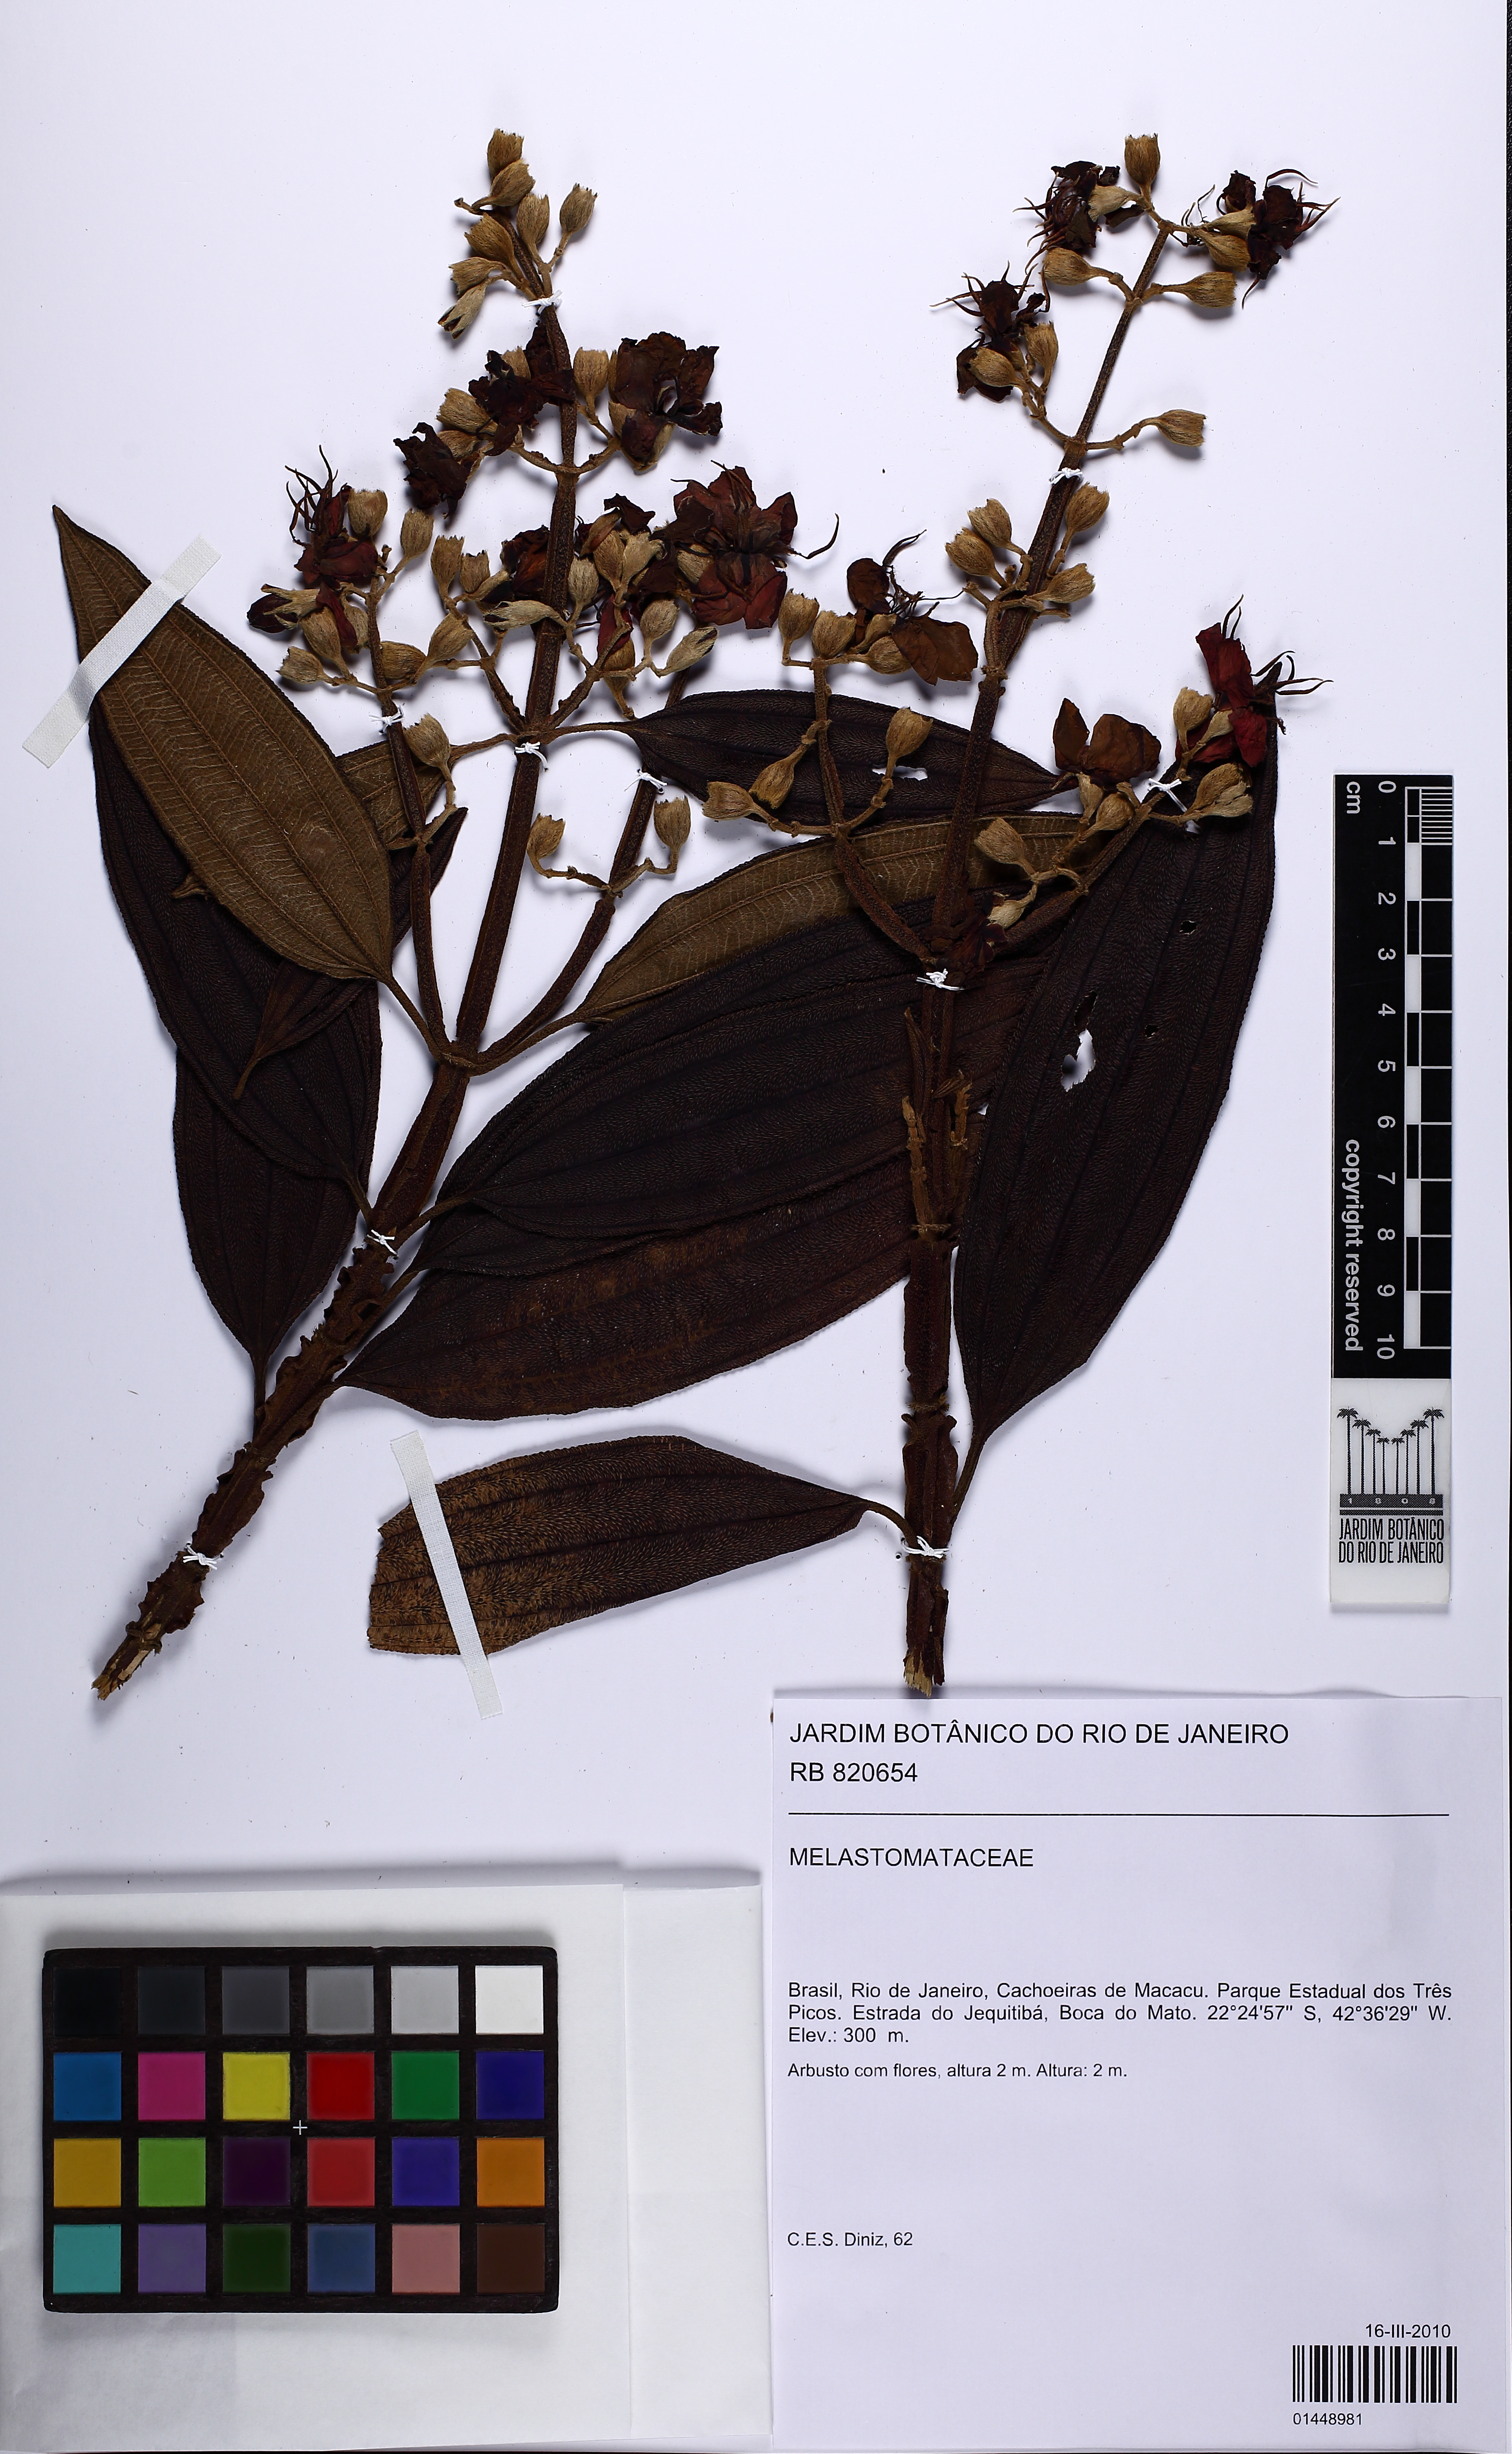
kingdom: Plantae
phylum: Tracheophyta
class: Magnoliopsida
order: Myrtales
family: Melastomataceae
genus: Pleroma
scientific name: Pleroma
